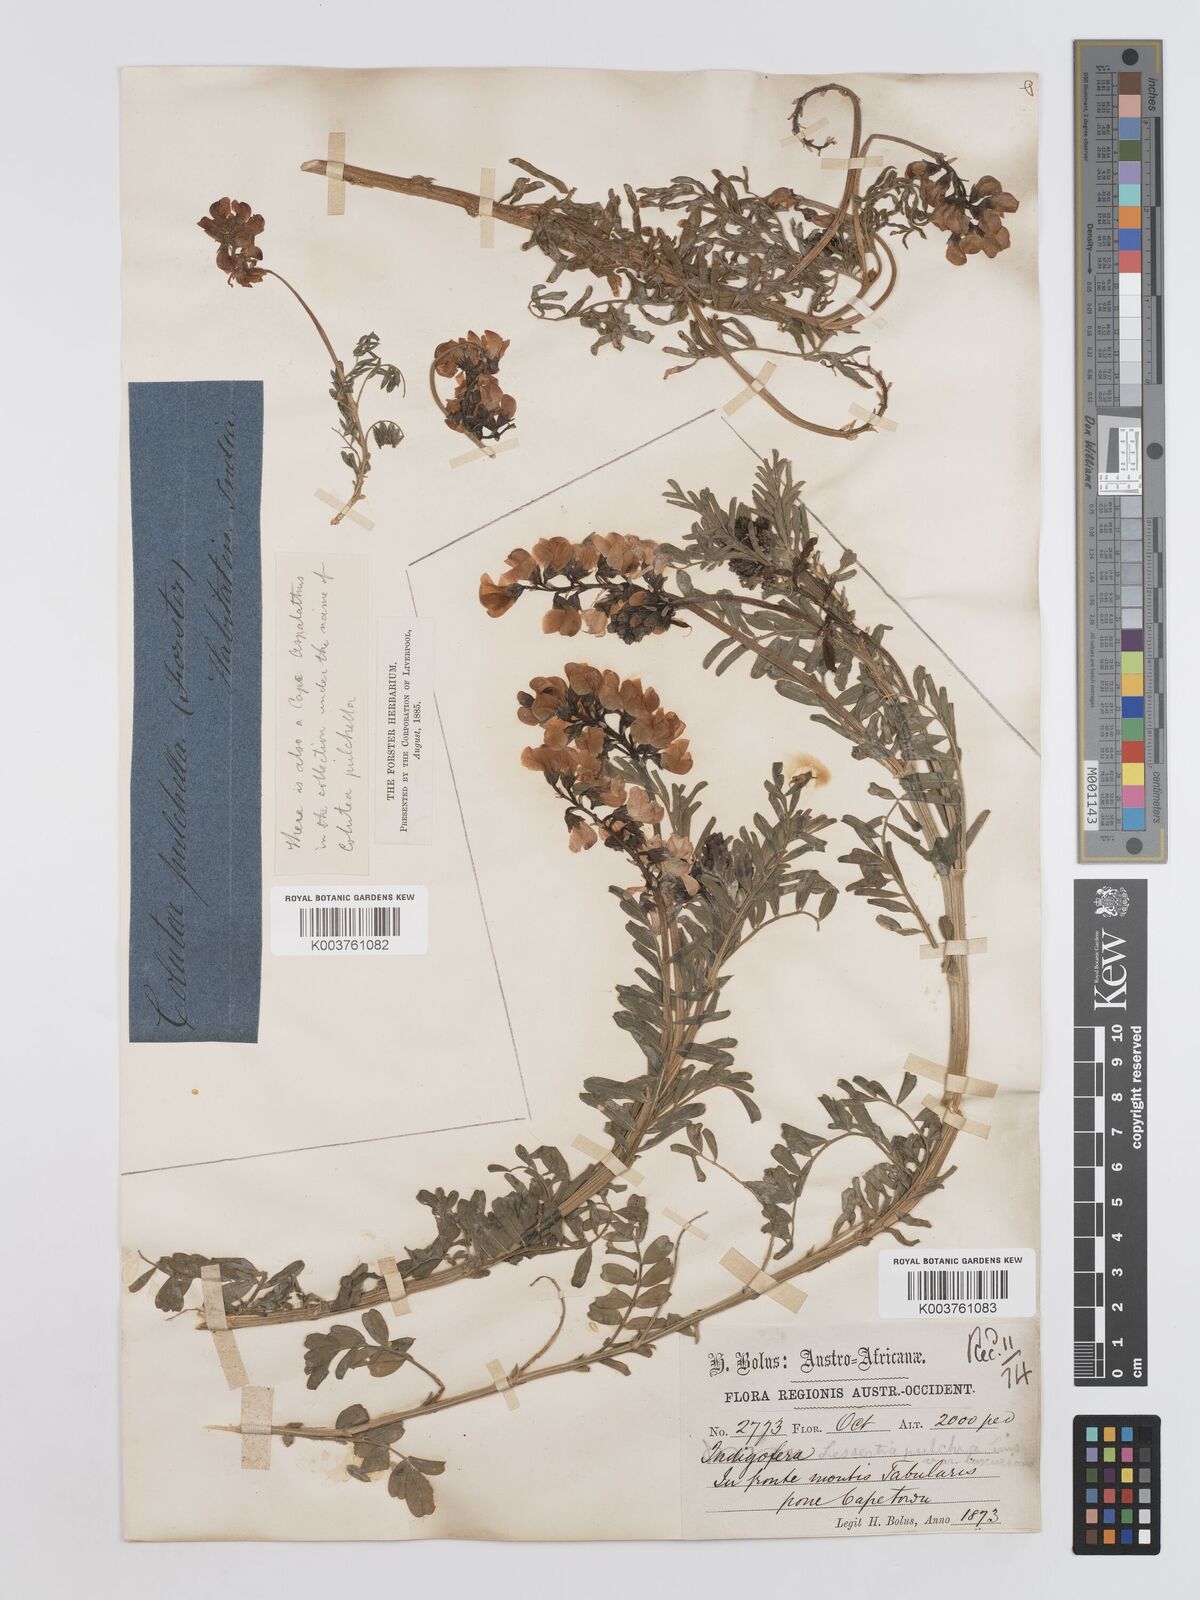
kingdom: Plantae
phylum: Tracheophyta
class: Magnoliopsida
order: Fabales
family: Fabaceae
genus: Lessertia
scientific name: Lessertia capensis
